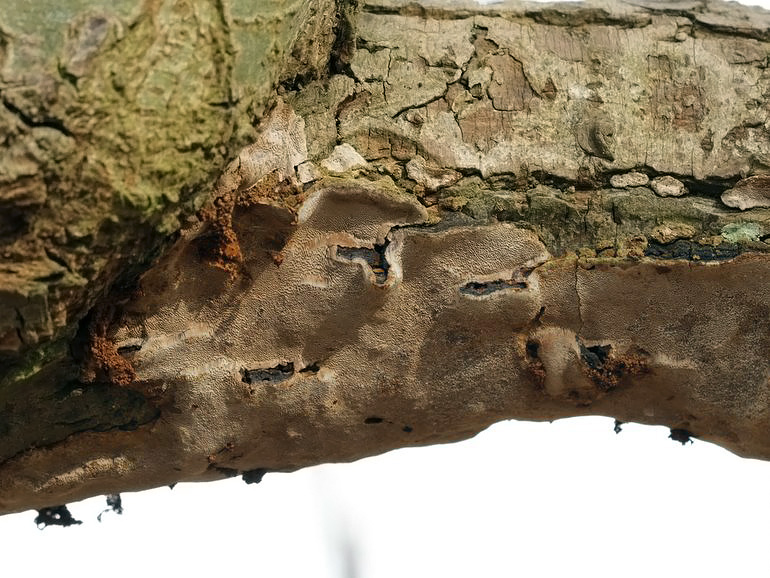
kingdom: Fungi
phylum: Basidiomycota
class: Agaricomycetes
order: Hymenochaetales
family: Hymenochaetaceae
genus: Phellinopsis
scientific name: Phellinopsis conchata
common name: pile-ildporesvamp
